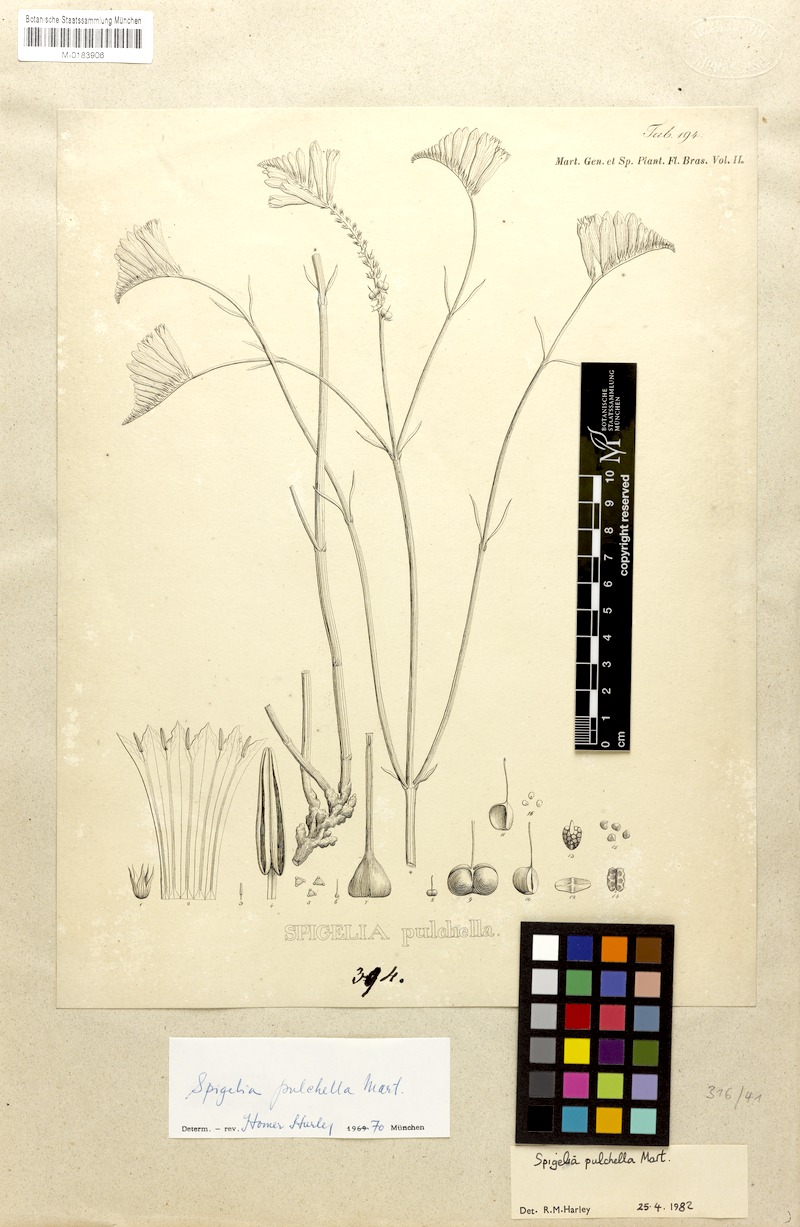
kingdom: Plantae
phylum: Tracheophyta
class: Magnoliopsida
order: Gentianales
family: Loganiaceae
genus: Spigelia
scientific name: Spigelia pulchella
